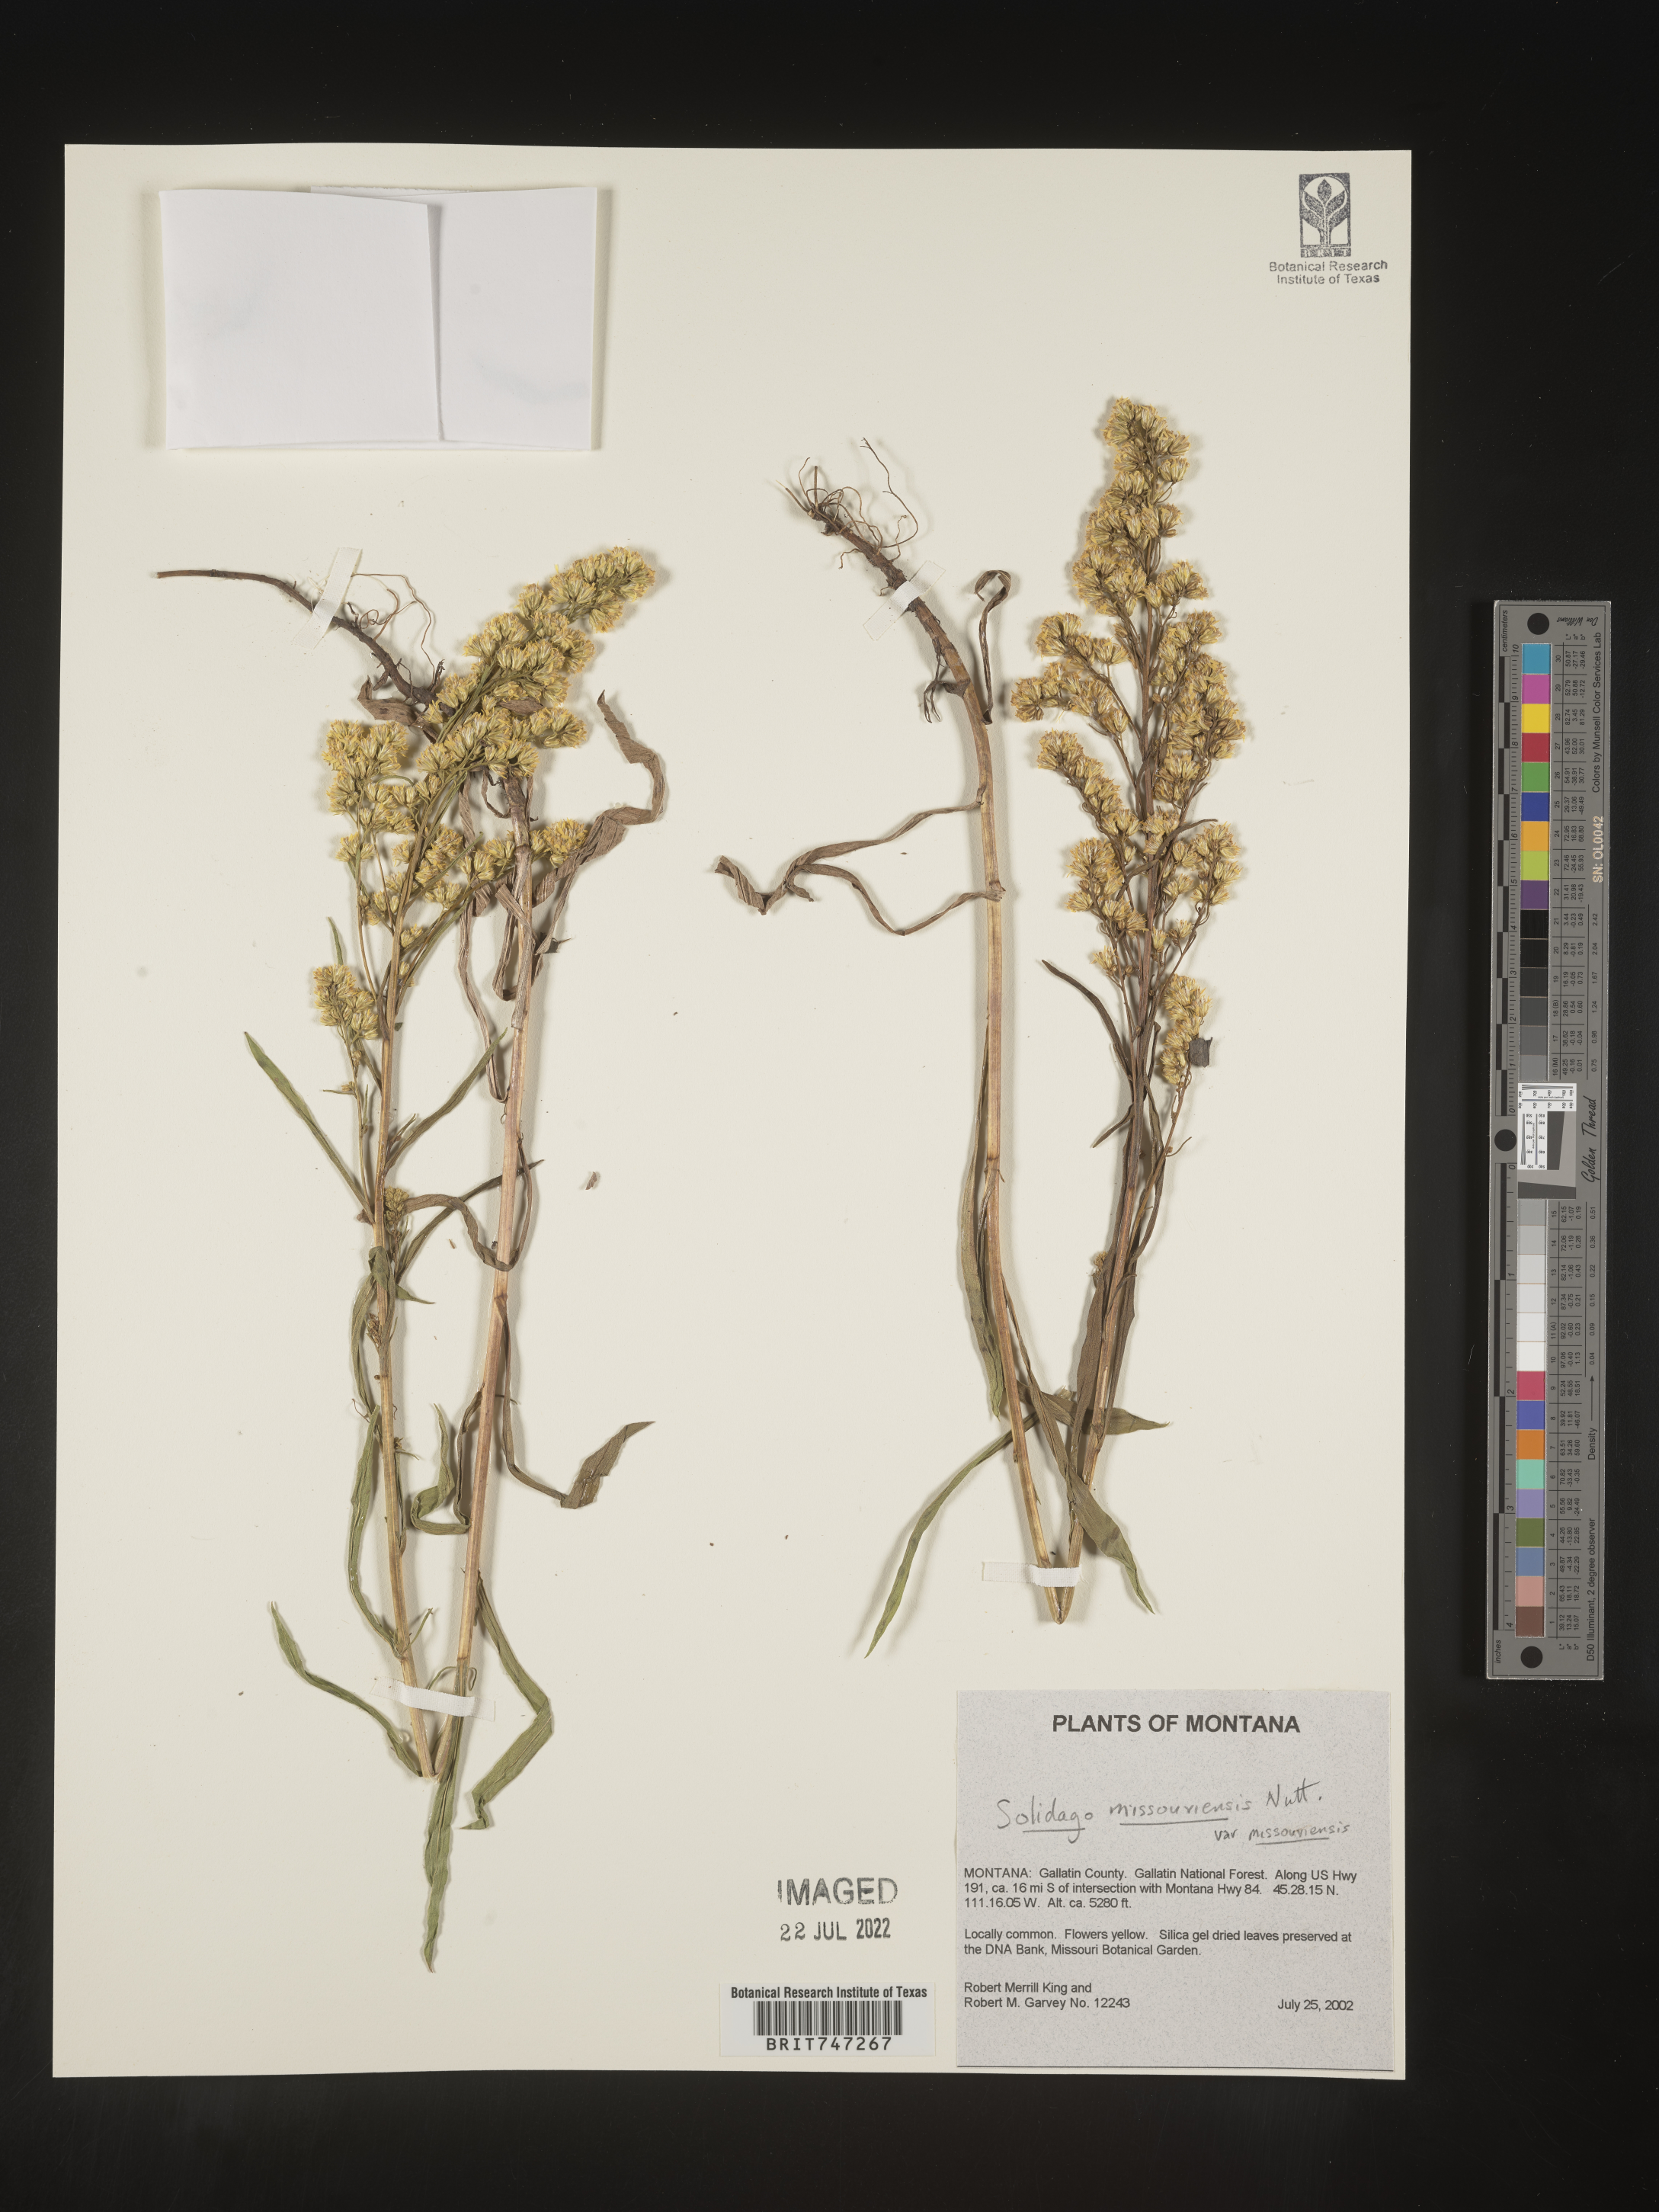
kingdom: Plantae
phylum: Tracheophyta
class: Magnoliopsida
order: Asterales
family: Asteraceae
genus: Solidago
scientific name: Solidago missouriensis
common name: Prairie goldenrod
